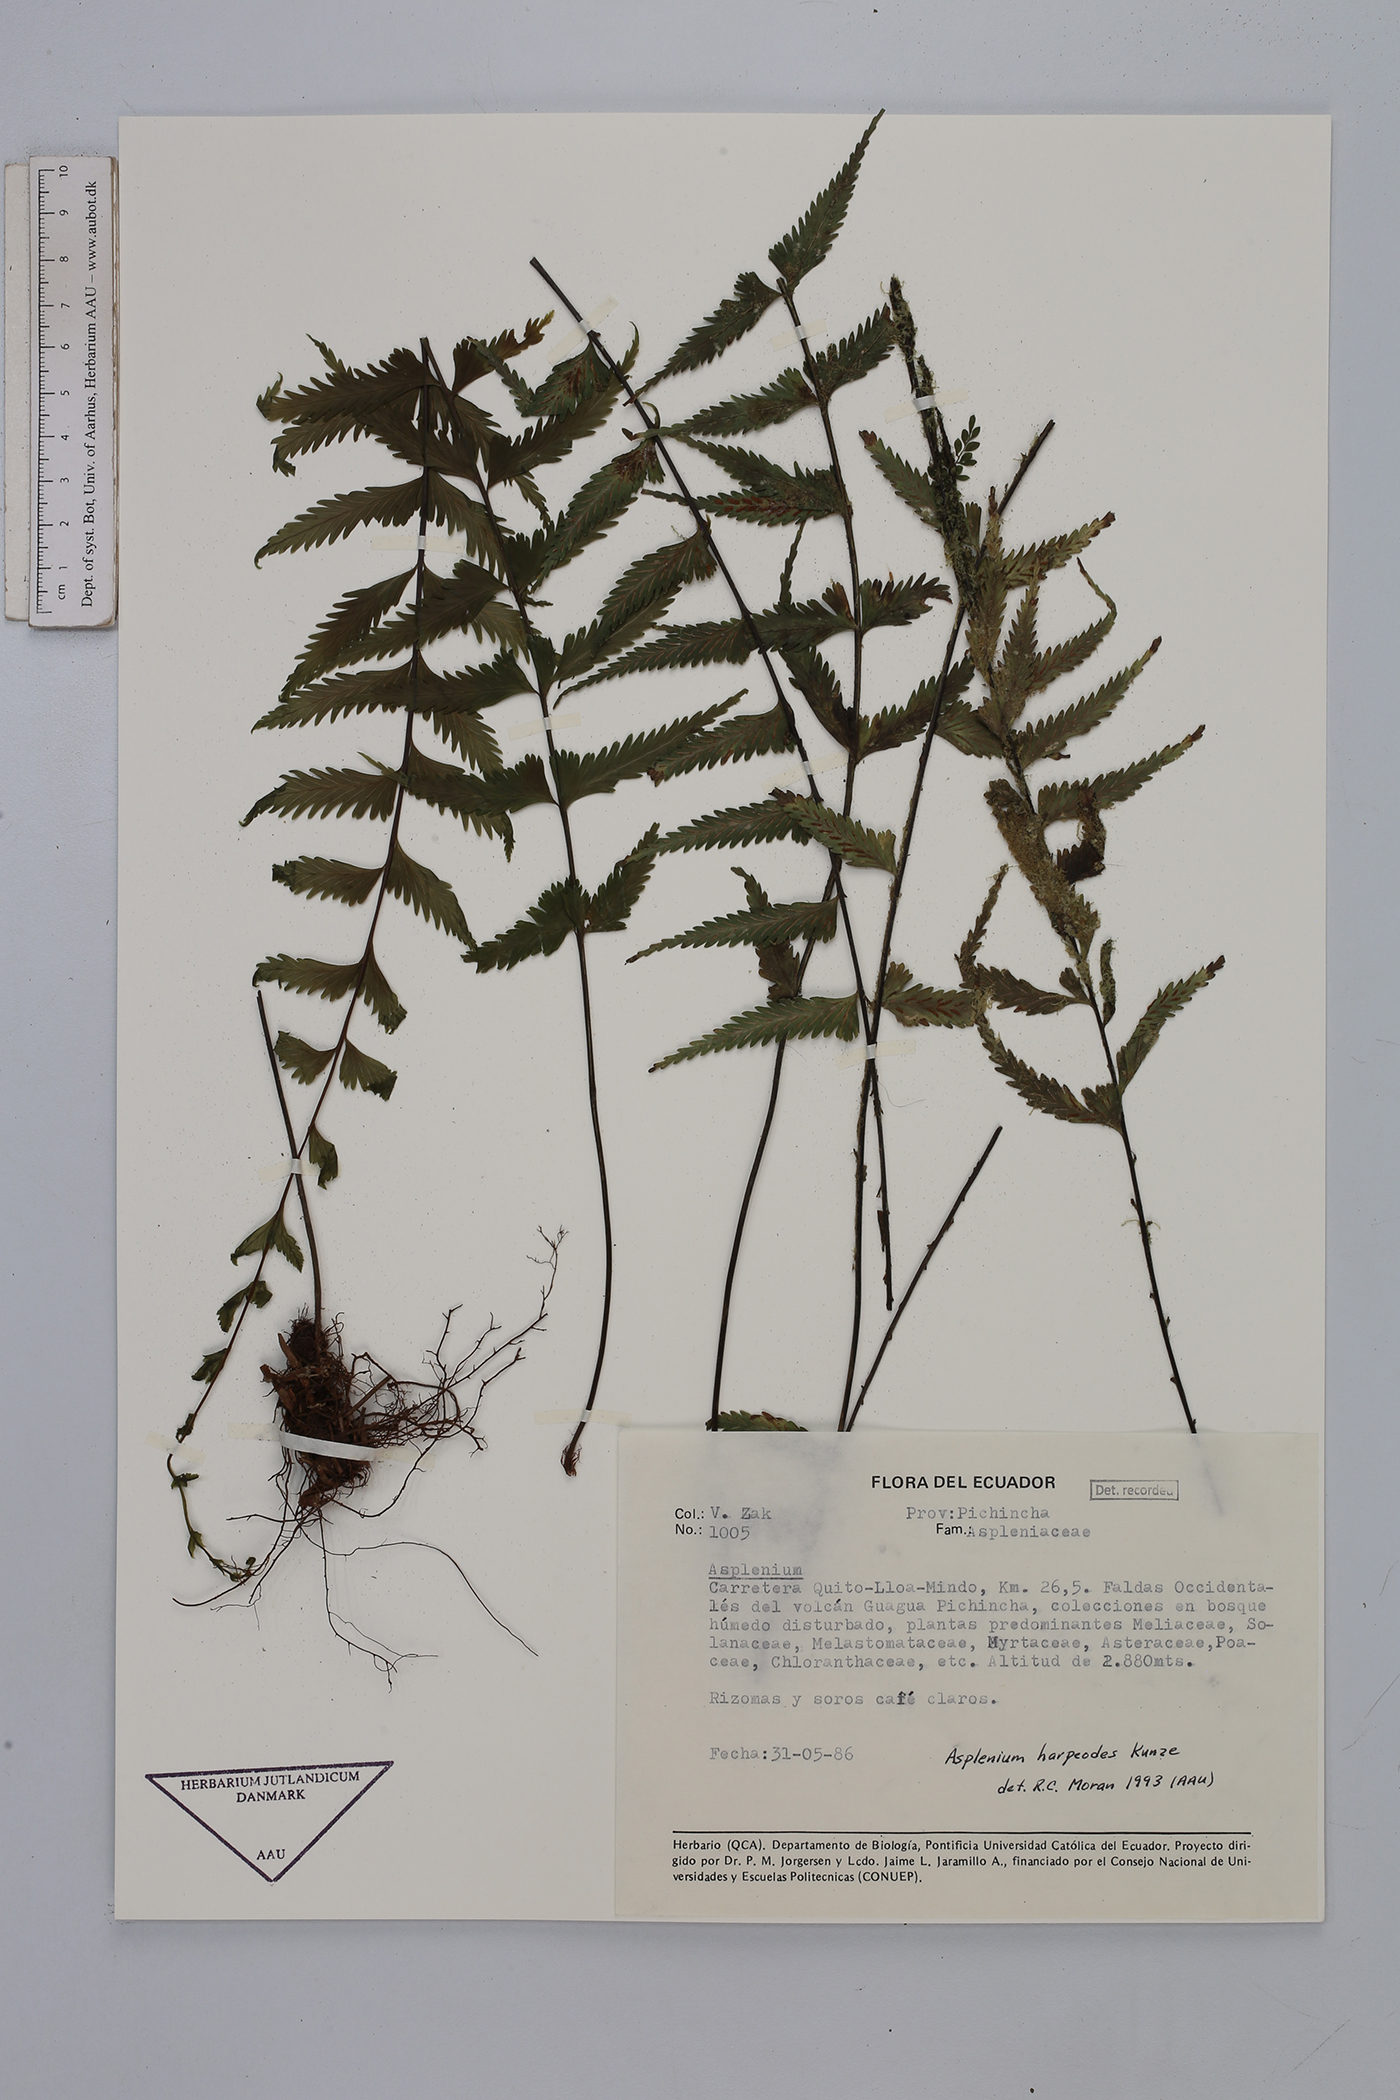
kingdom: Plantae
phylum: Tracheophyta
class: Polypodiopsida
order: Polypodiales
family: Aspleniaceae
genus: Asplenium
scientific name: Asplenium harpeodes
